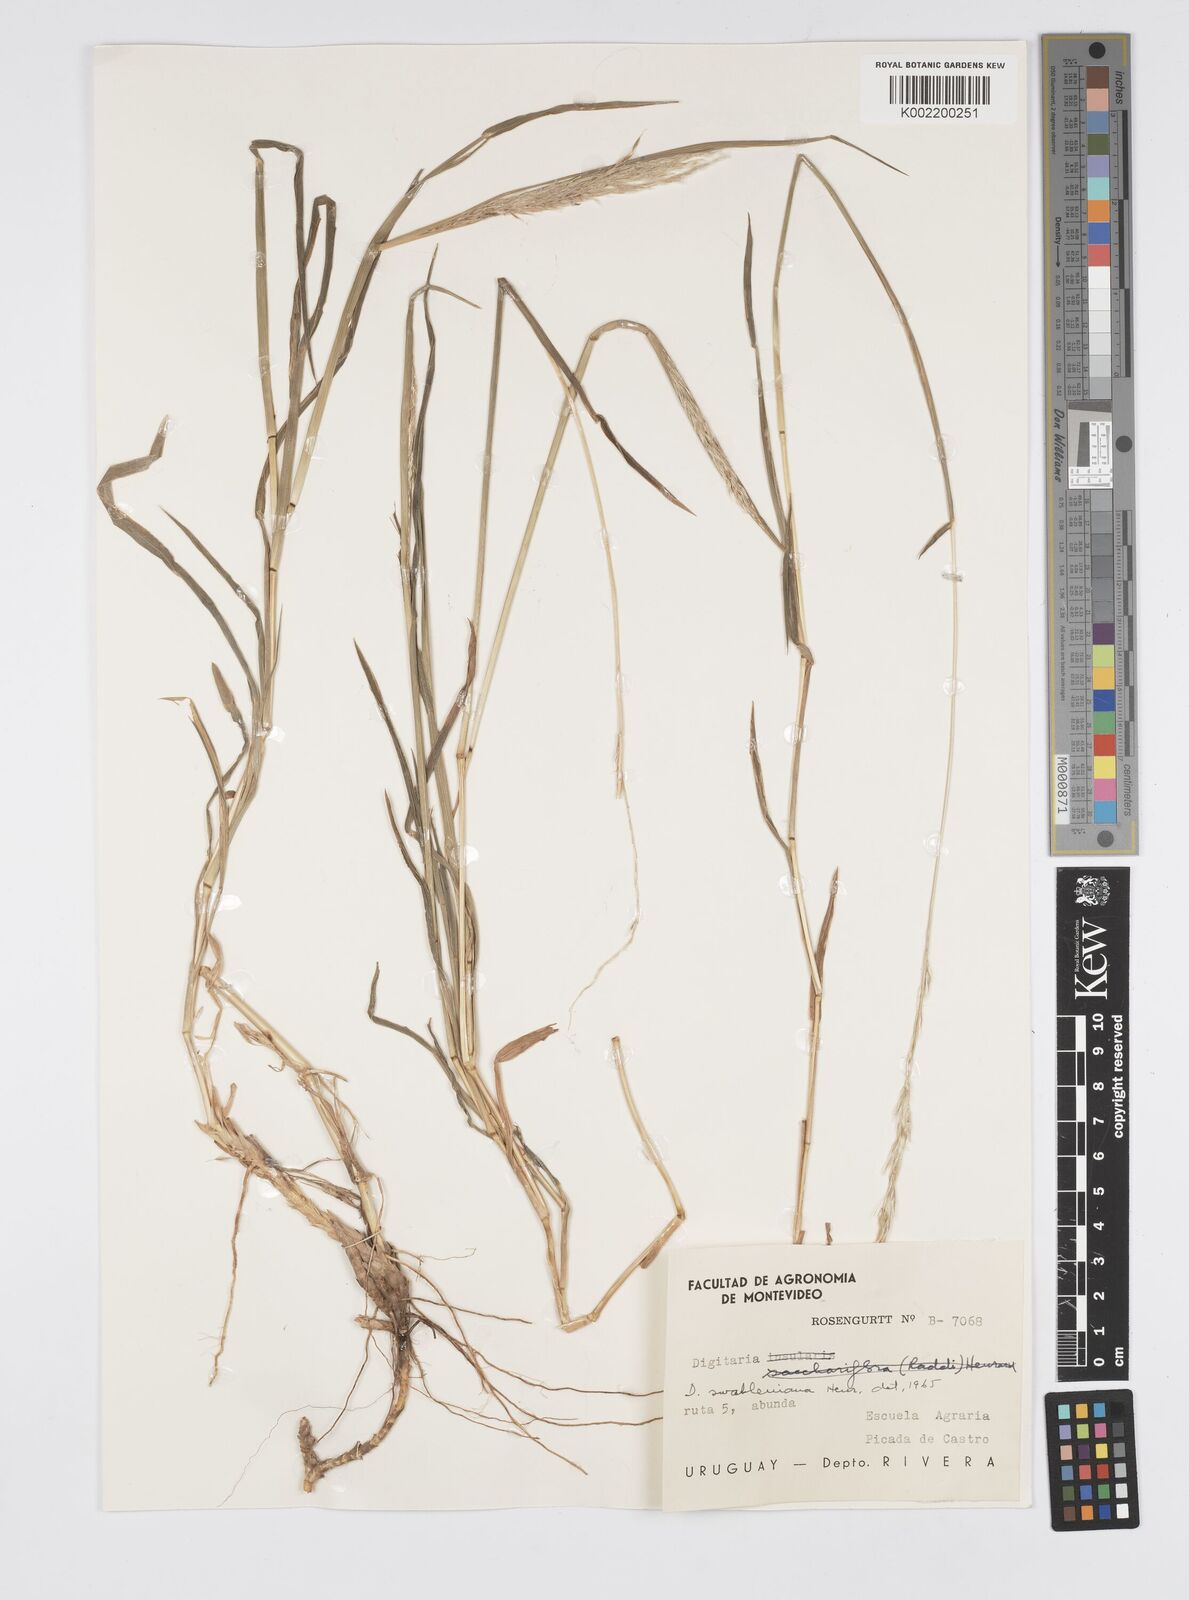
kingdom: Plantae
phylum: Tracheophyta
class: Liliopsida
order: Poales
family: Poaceae
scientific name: Poaceae
